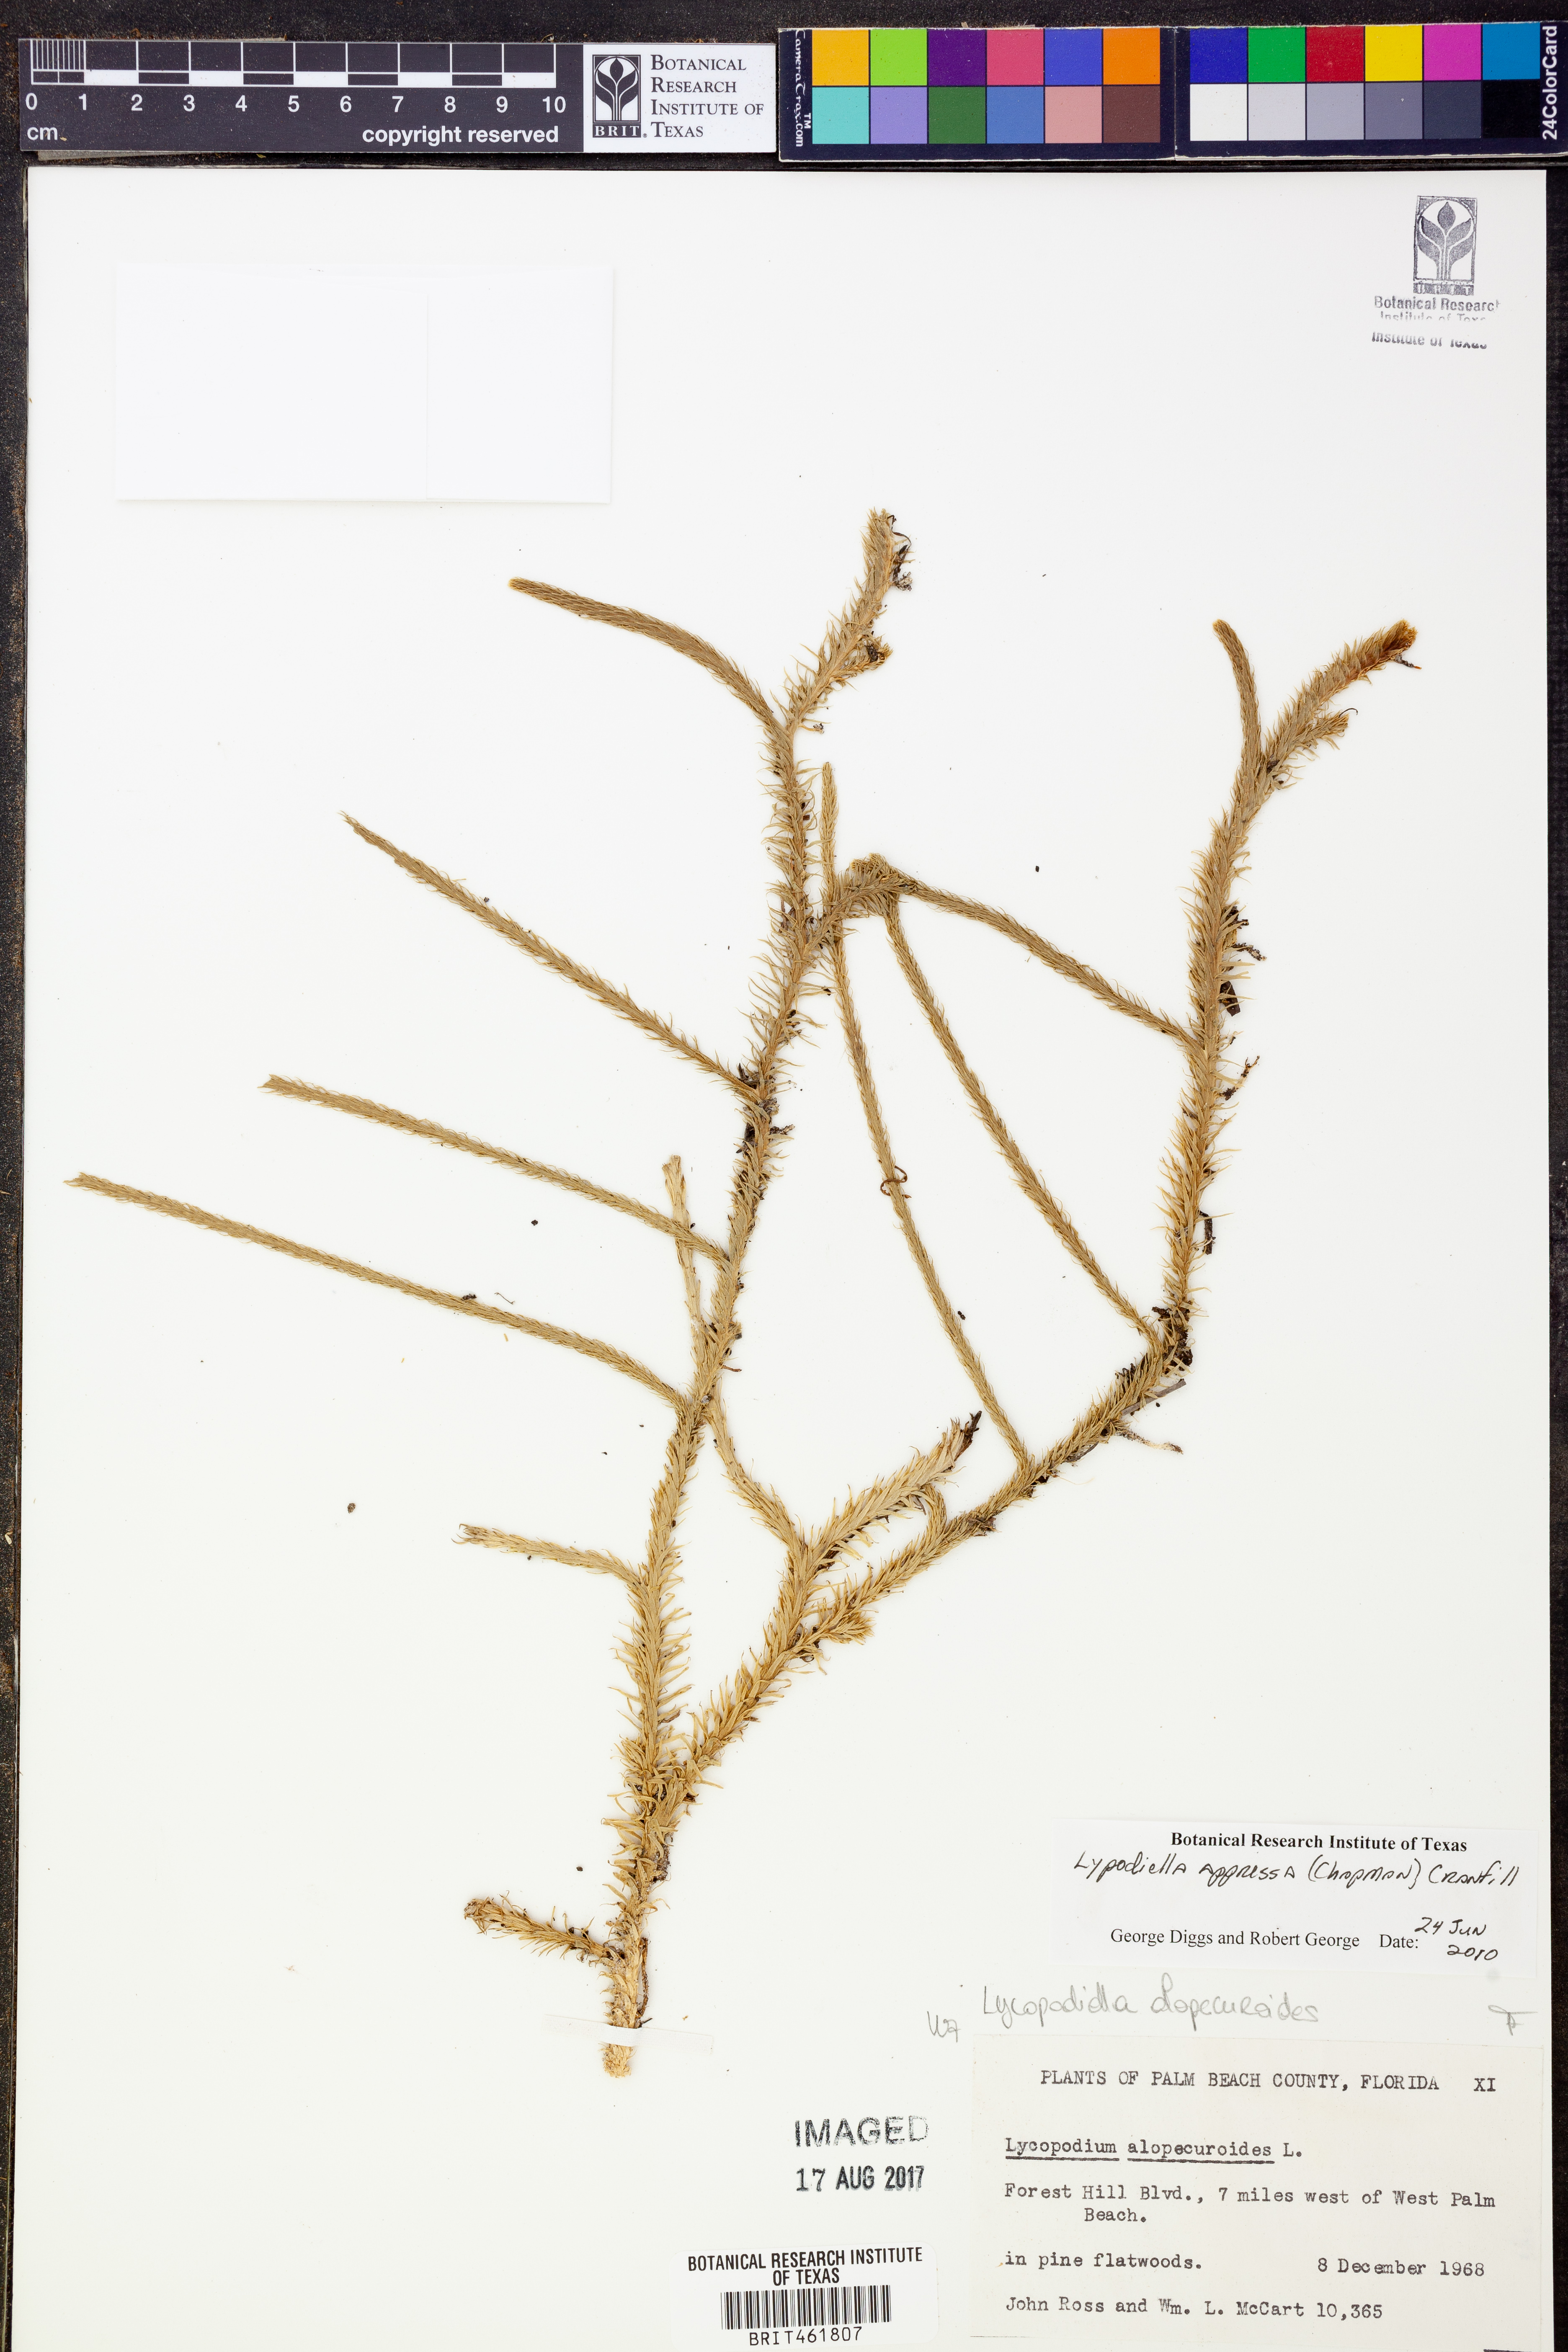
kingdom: Plantae
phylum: Tracheophyta
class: Lycopodiopsida
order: Lycopodiales
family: Lycopodiaceae
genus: Lycopodiella
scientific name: Lycopodiella appressa
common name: Appressed bog clubmoss
